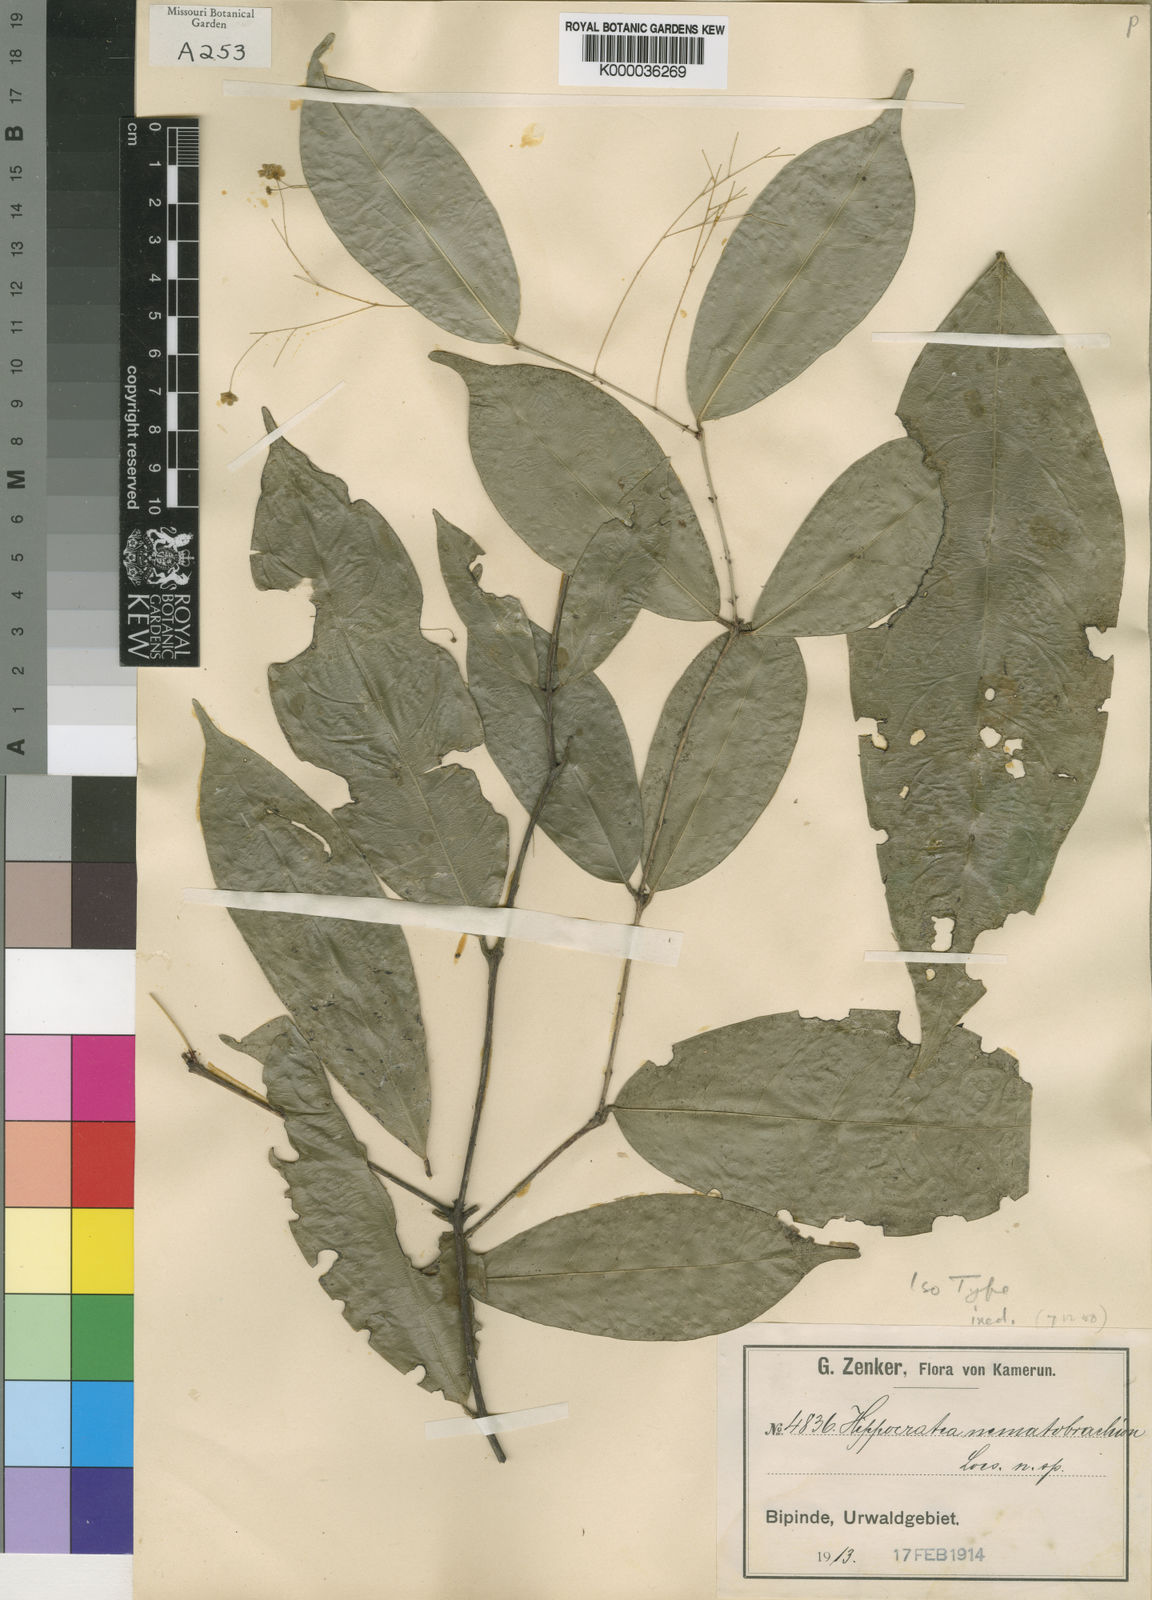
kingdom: Plantae
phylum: Tracheophyta
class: Magnoliopsida
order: Celastrales
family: Celastraceae
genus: Thyrsosalacia
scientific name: Thyrsosalacia nematobrachion
